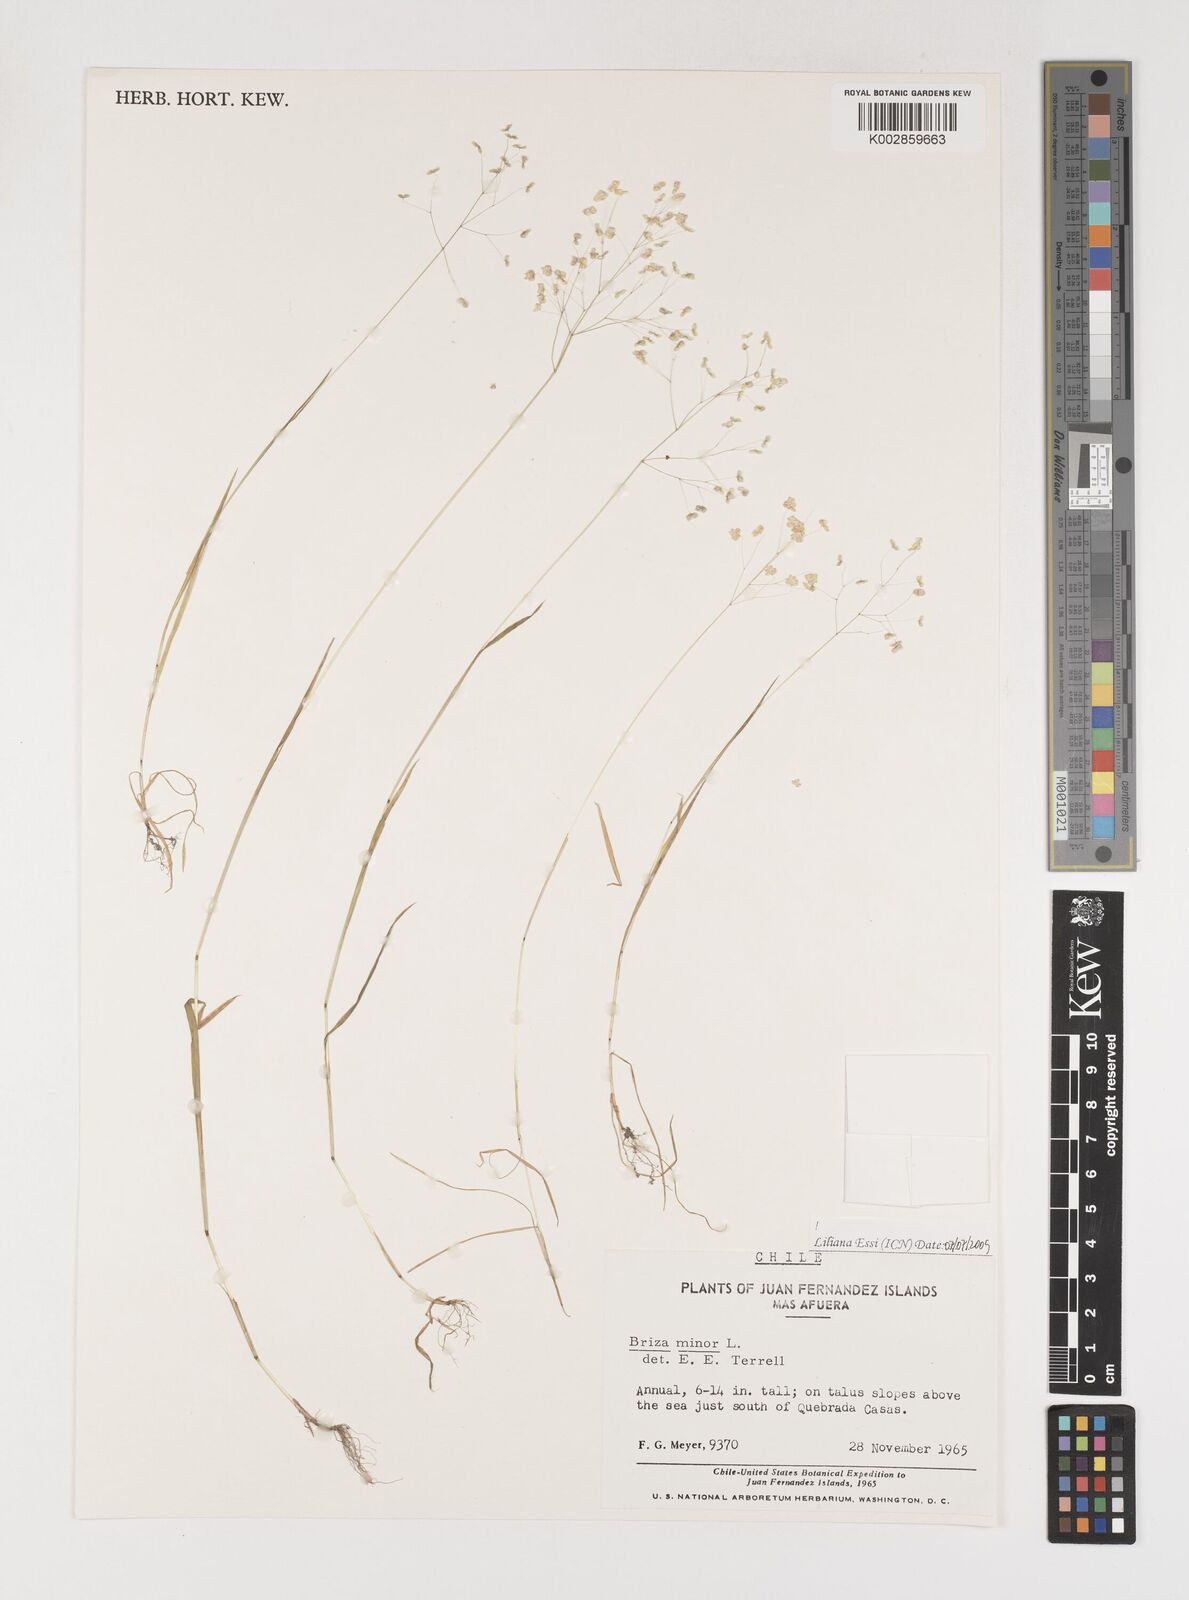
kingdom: Plantae
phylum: Tracheophyta
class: Liliopsida
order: Poales
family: Poaceae
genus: Briza
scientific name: Briza minor
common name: Lesser quaking-grass
